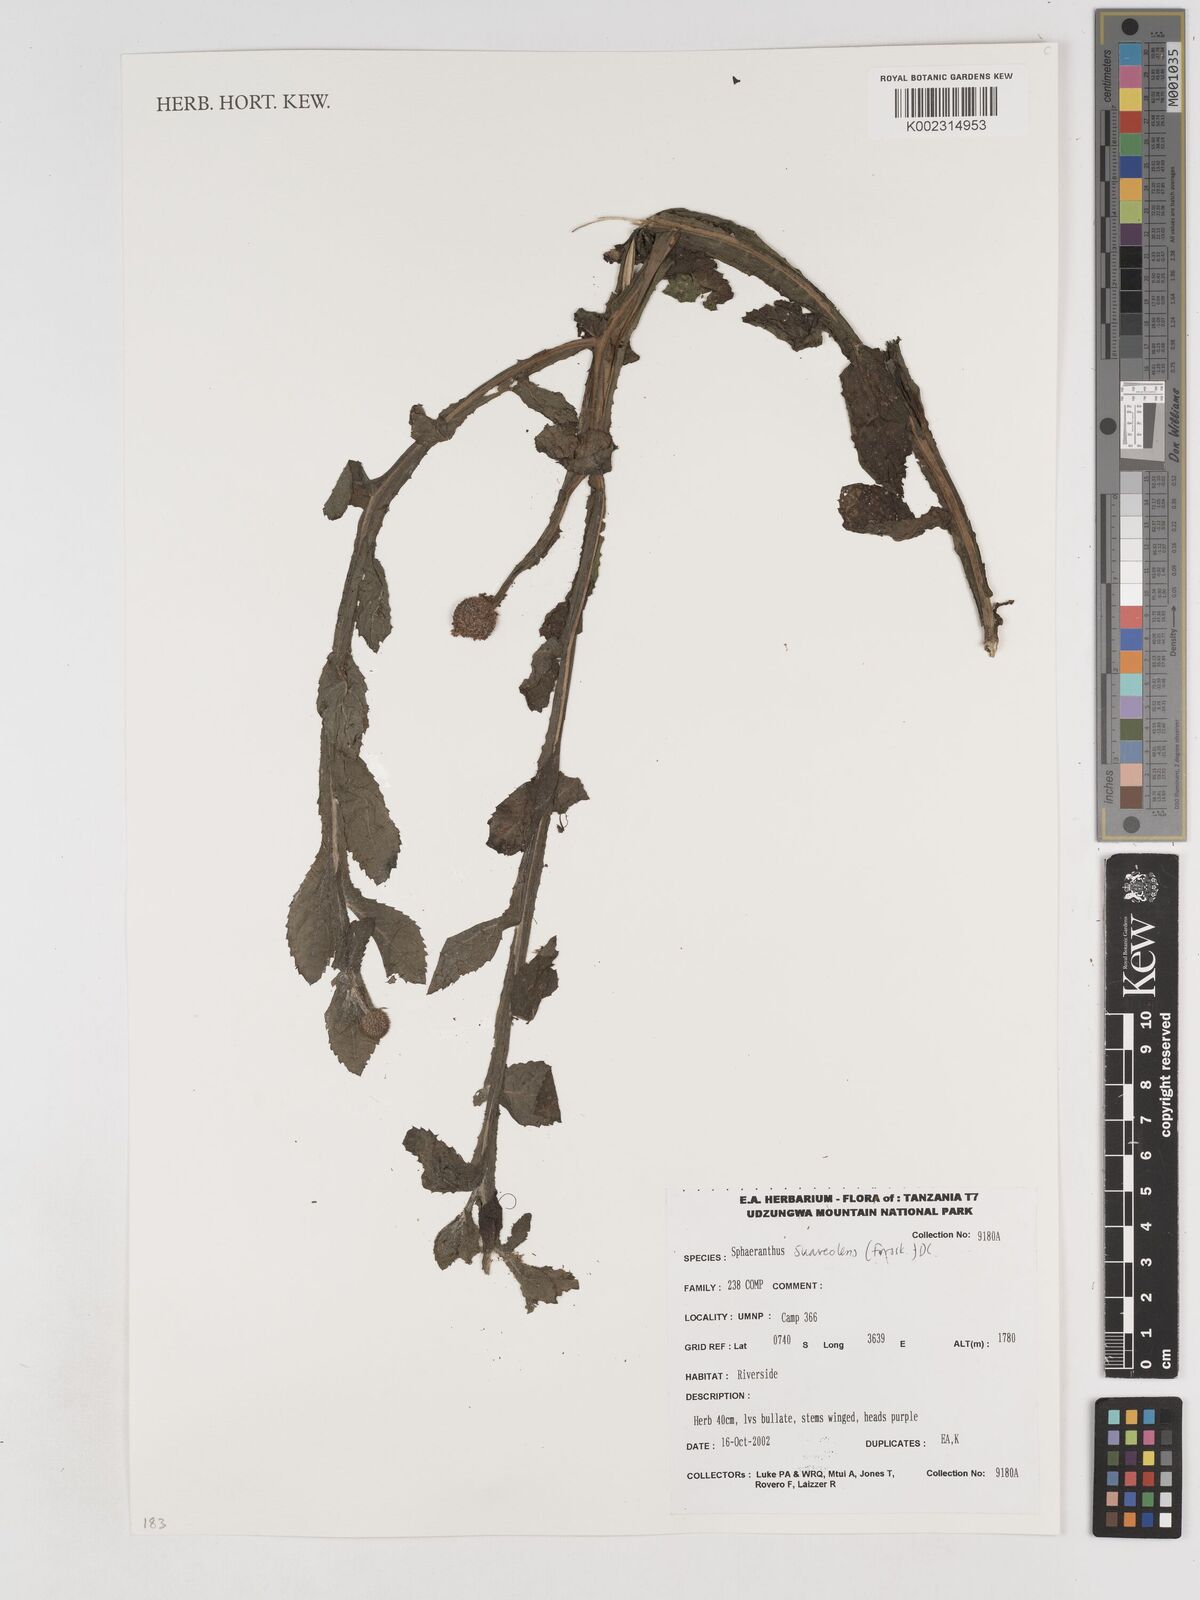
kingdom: Plantae
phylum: Tracheophyta
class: Magnoliopsida
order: Asterales
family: Asteraceae
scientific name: Asteraceae
